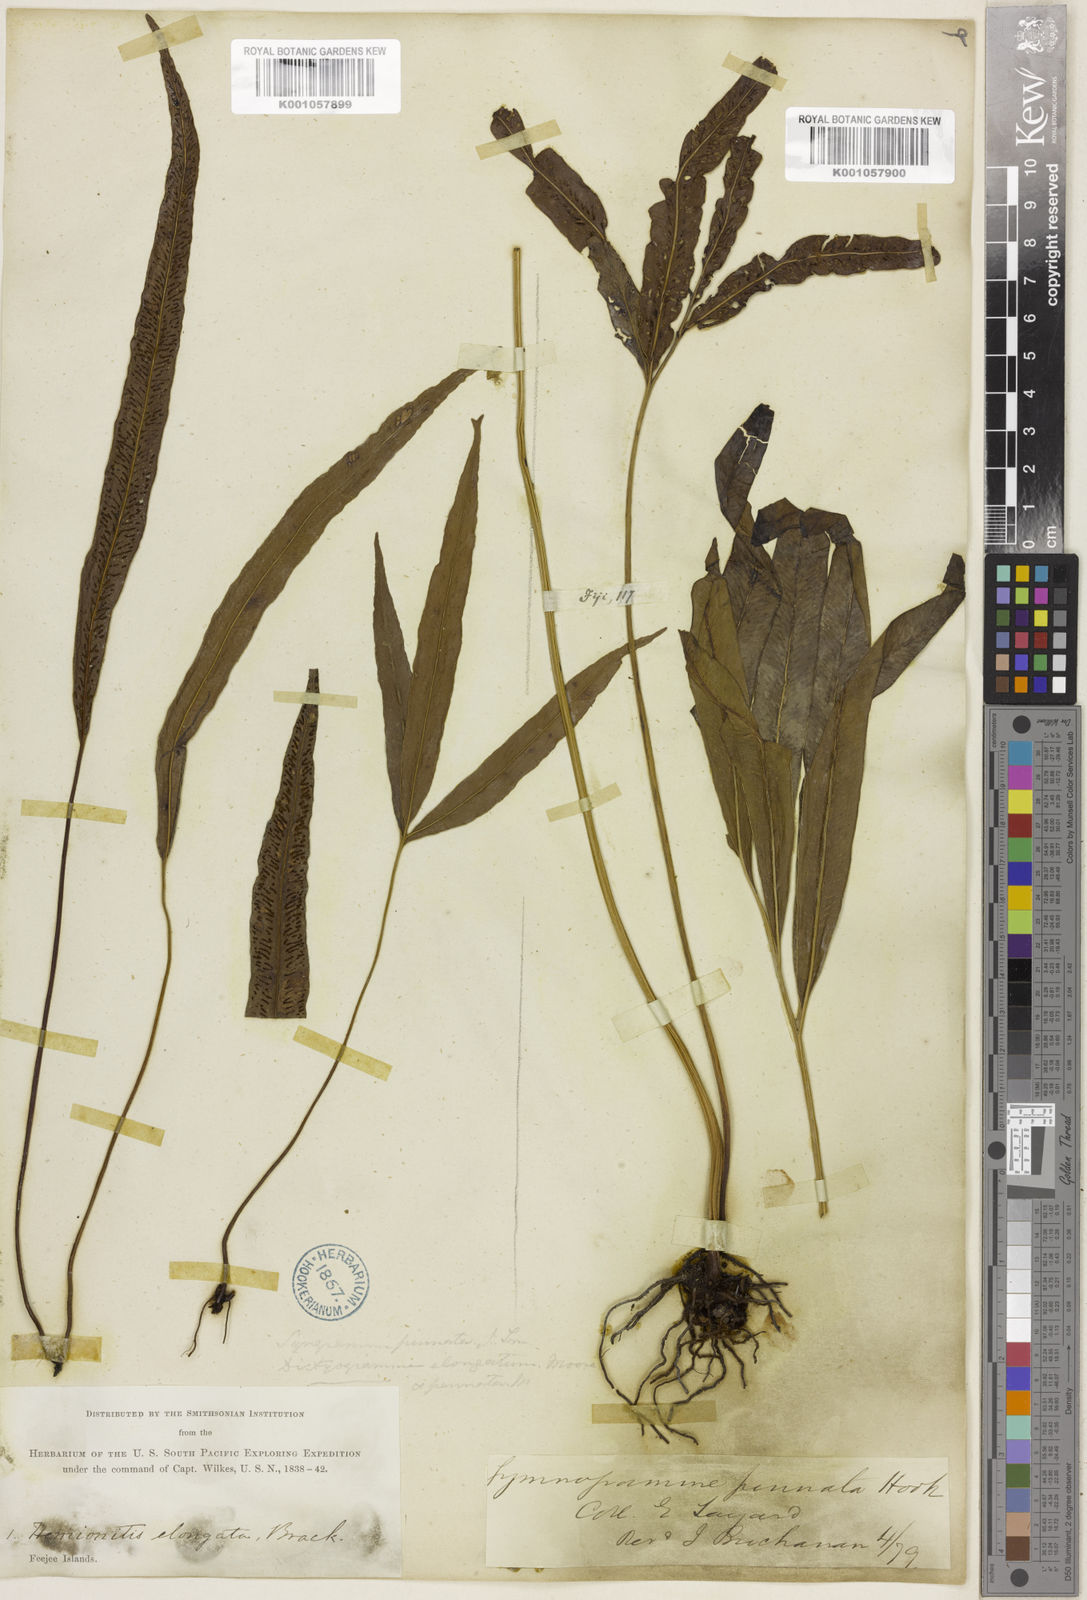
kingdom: Plantae
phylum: Tracheophyta
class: Polypodiopsida
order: Polypodiales
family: Pteridaceae
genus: Taenitis
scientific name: Taenitis pinnata
